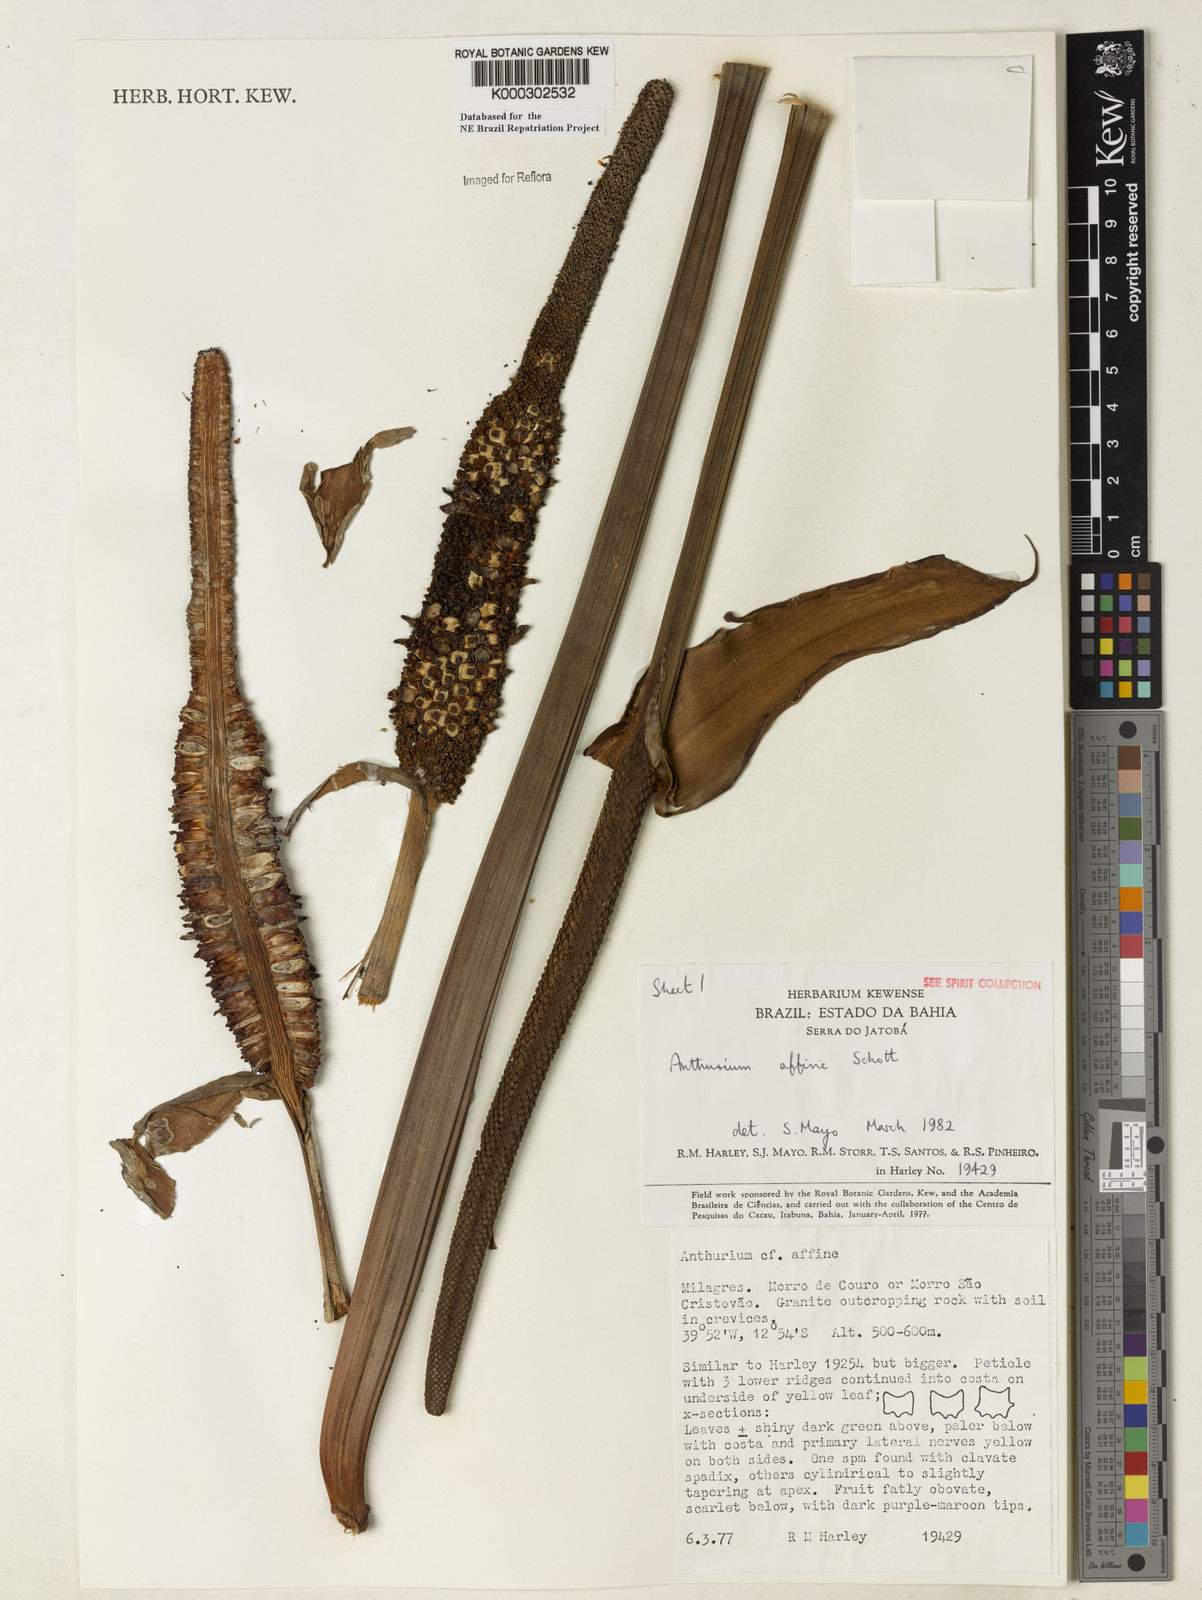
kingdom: Plantae
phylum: Tracheophyta
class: Liliopsida
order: Alismatales
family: Araceae
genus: Anthurium
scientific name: Anthurium affine
